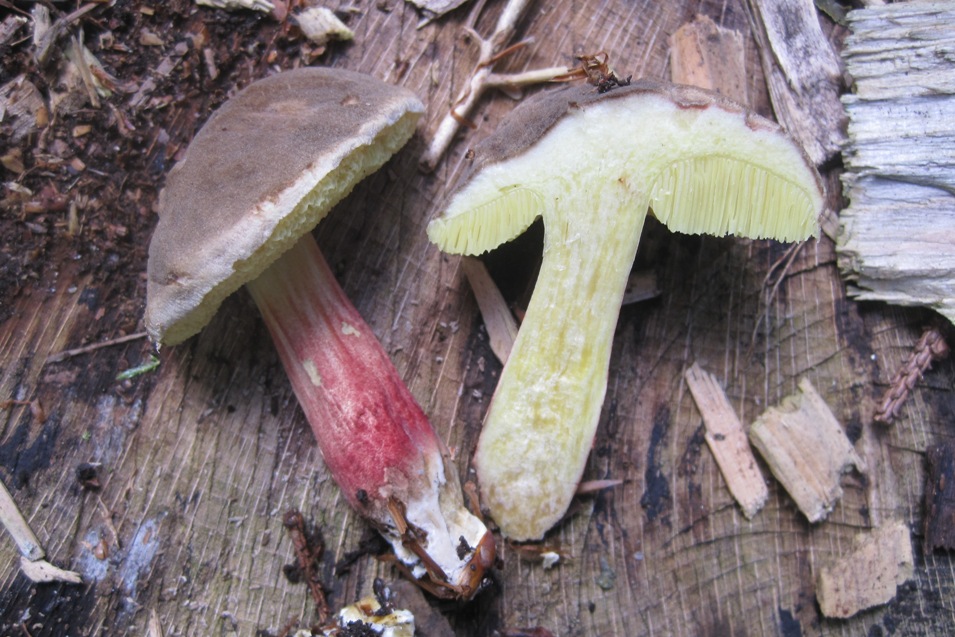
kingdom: Fungi
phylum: Basidiomycota
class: Agaricomycetes
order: Boletales
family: Boletaceae
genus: Xerocomellus
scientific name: Xerocomellus pruinatus
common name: dugget rørhat
